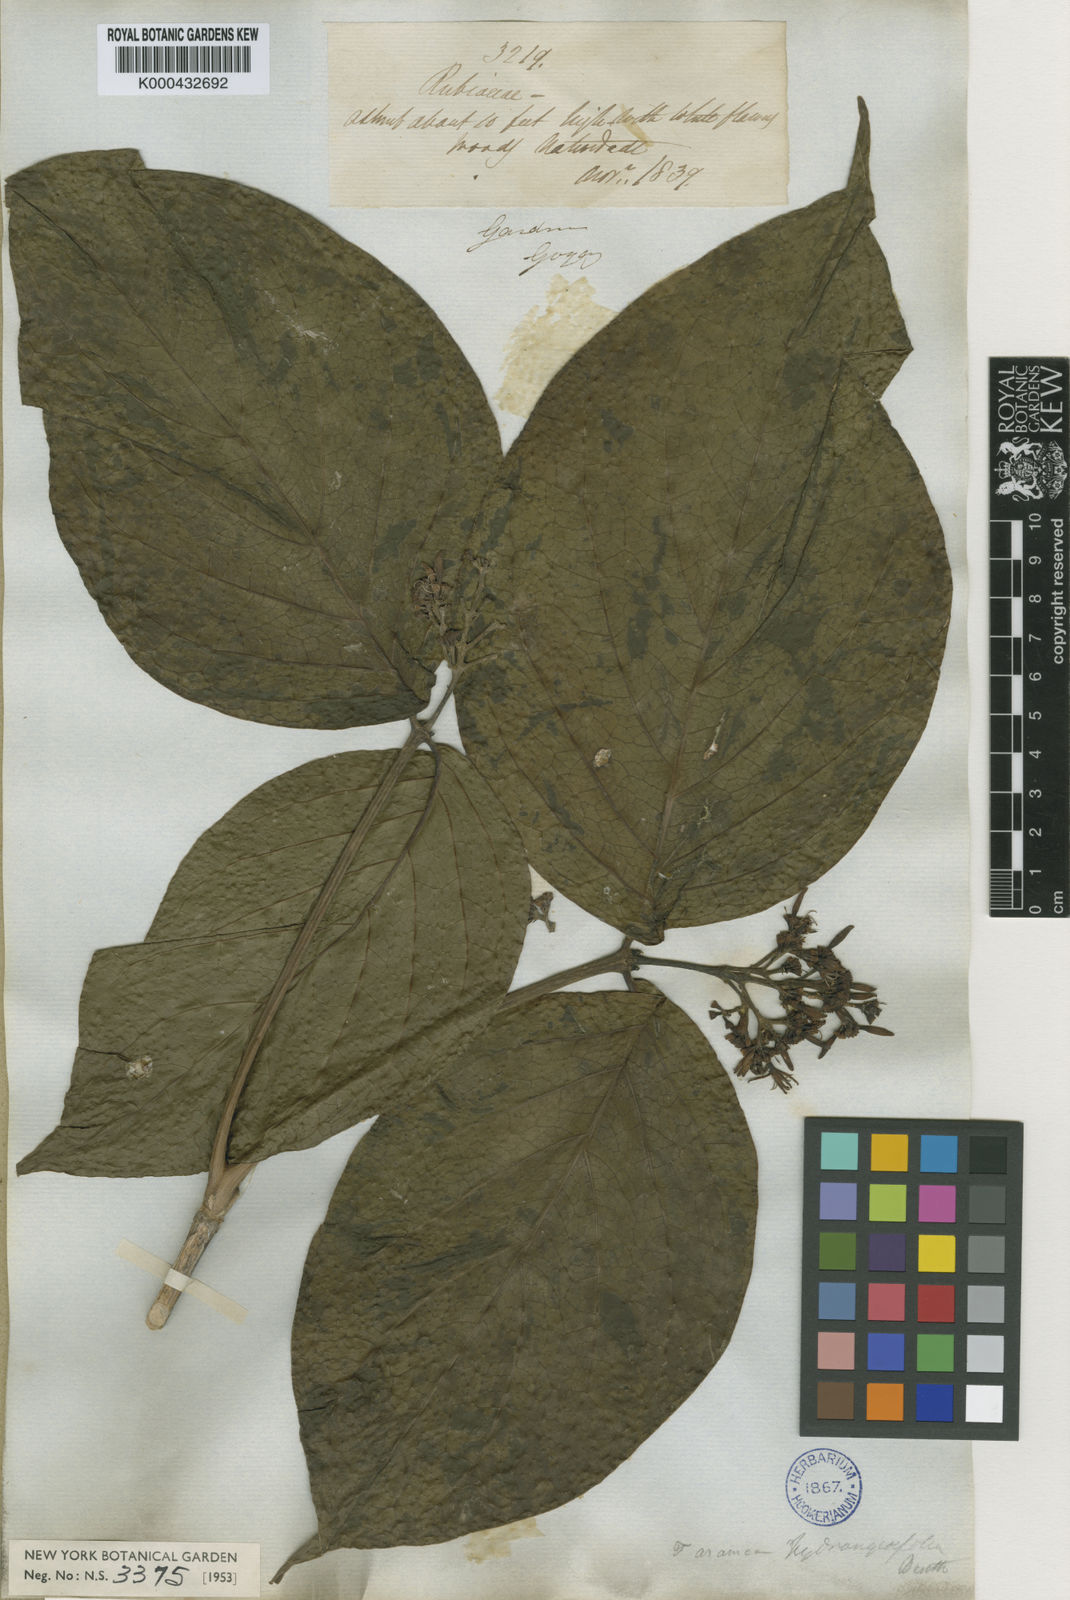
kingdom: Plantae
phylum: Tracheophyta
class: Magnoliopsida
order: Gentianales
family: Rubiaceae
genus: Coussarea
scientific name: Coussarea
